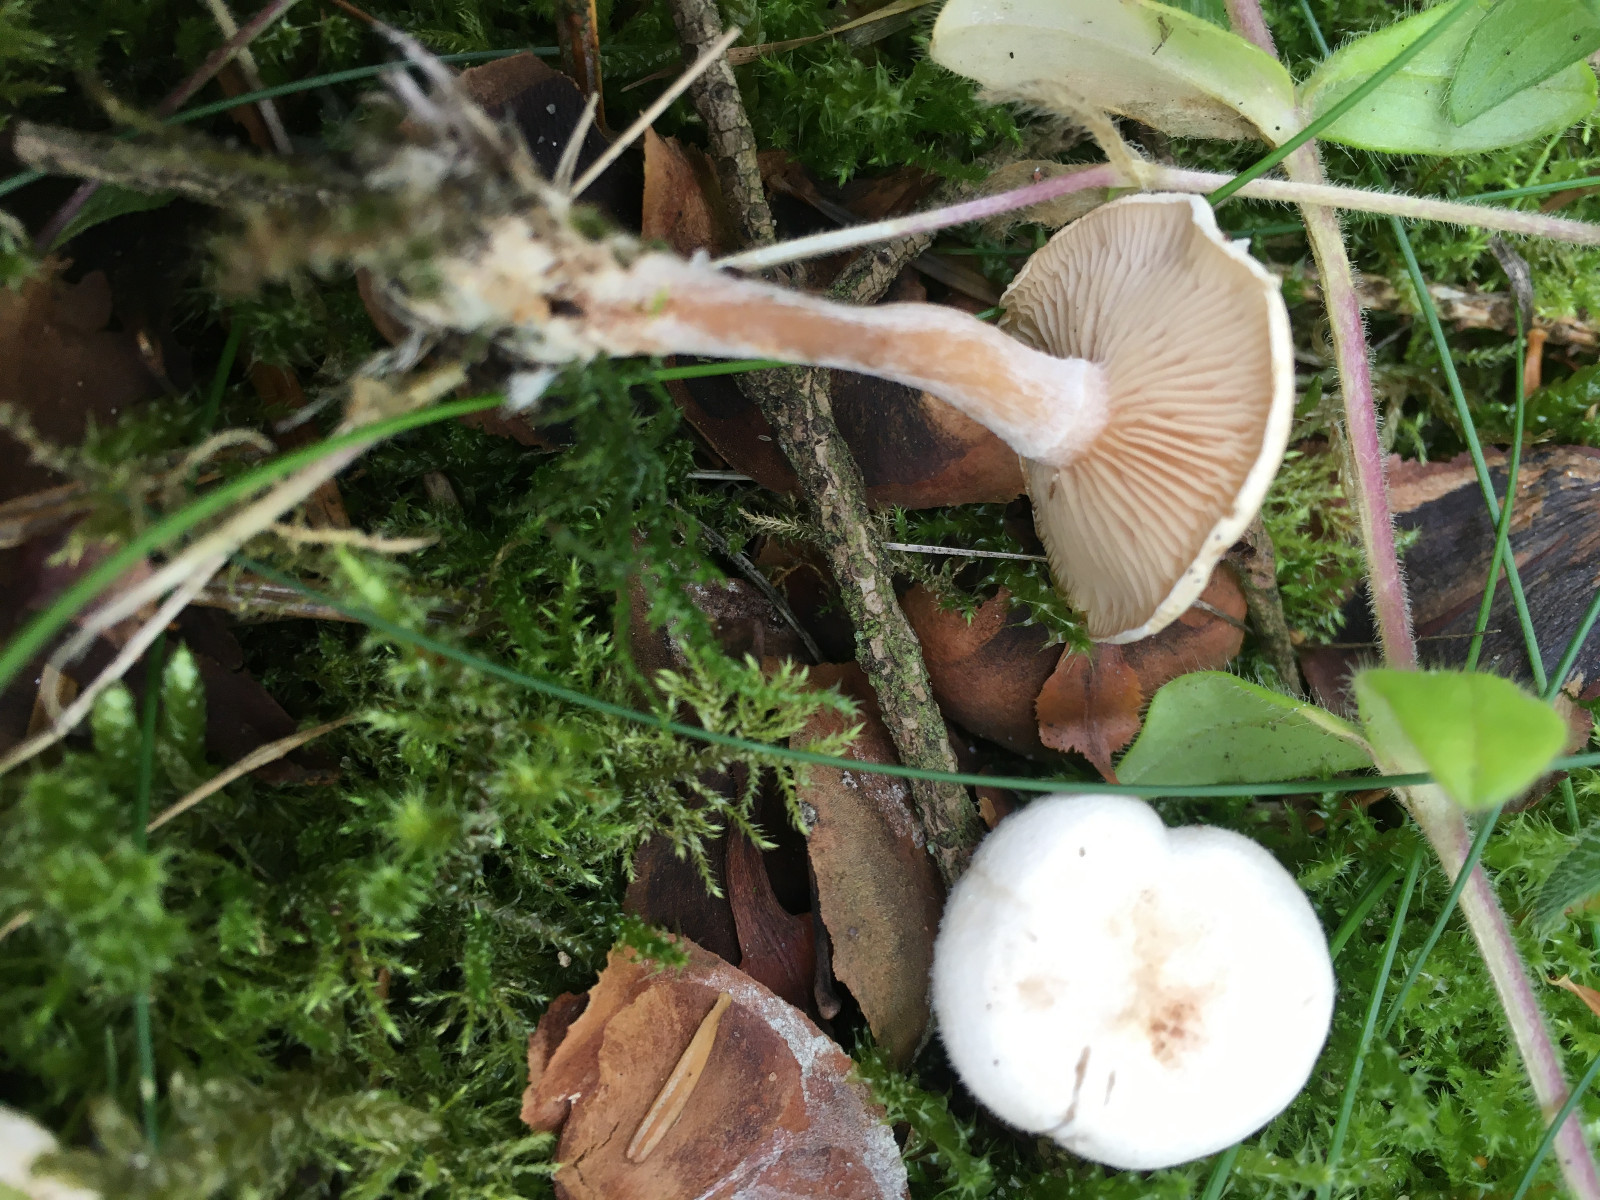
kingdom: Fungi
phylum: Basidiomycota
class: Agaricomycetes
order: Agaricales
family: Tricholomataceae
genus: Ripartites
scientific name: Ripartites tricholoma
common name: almindelig skæghat
